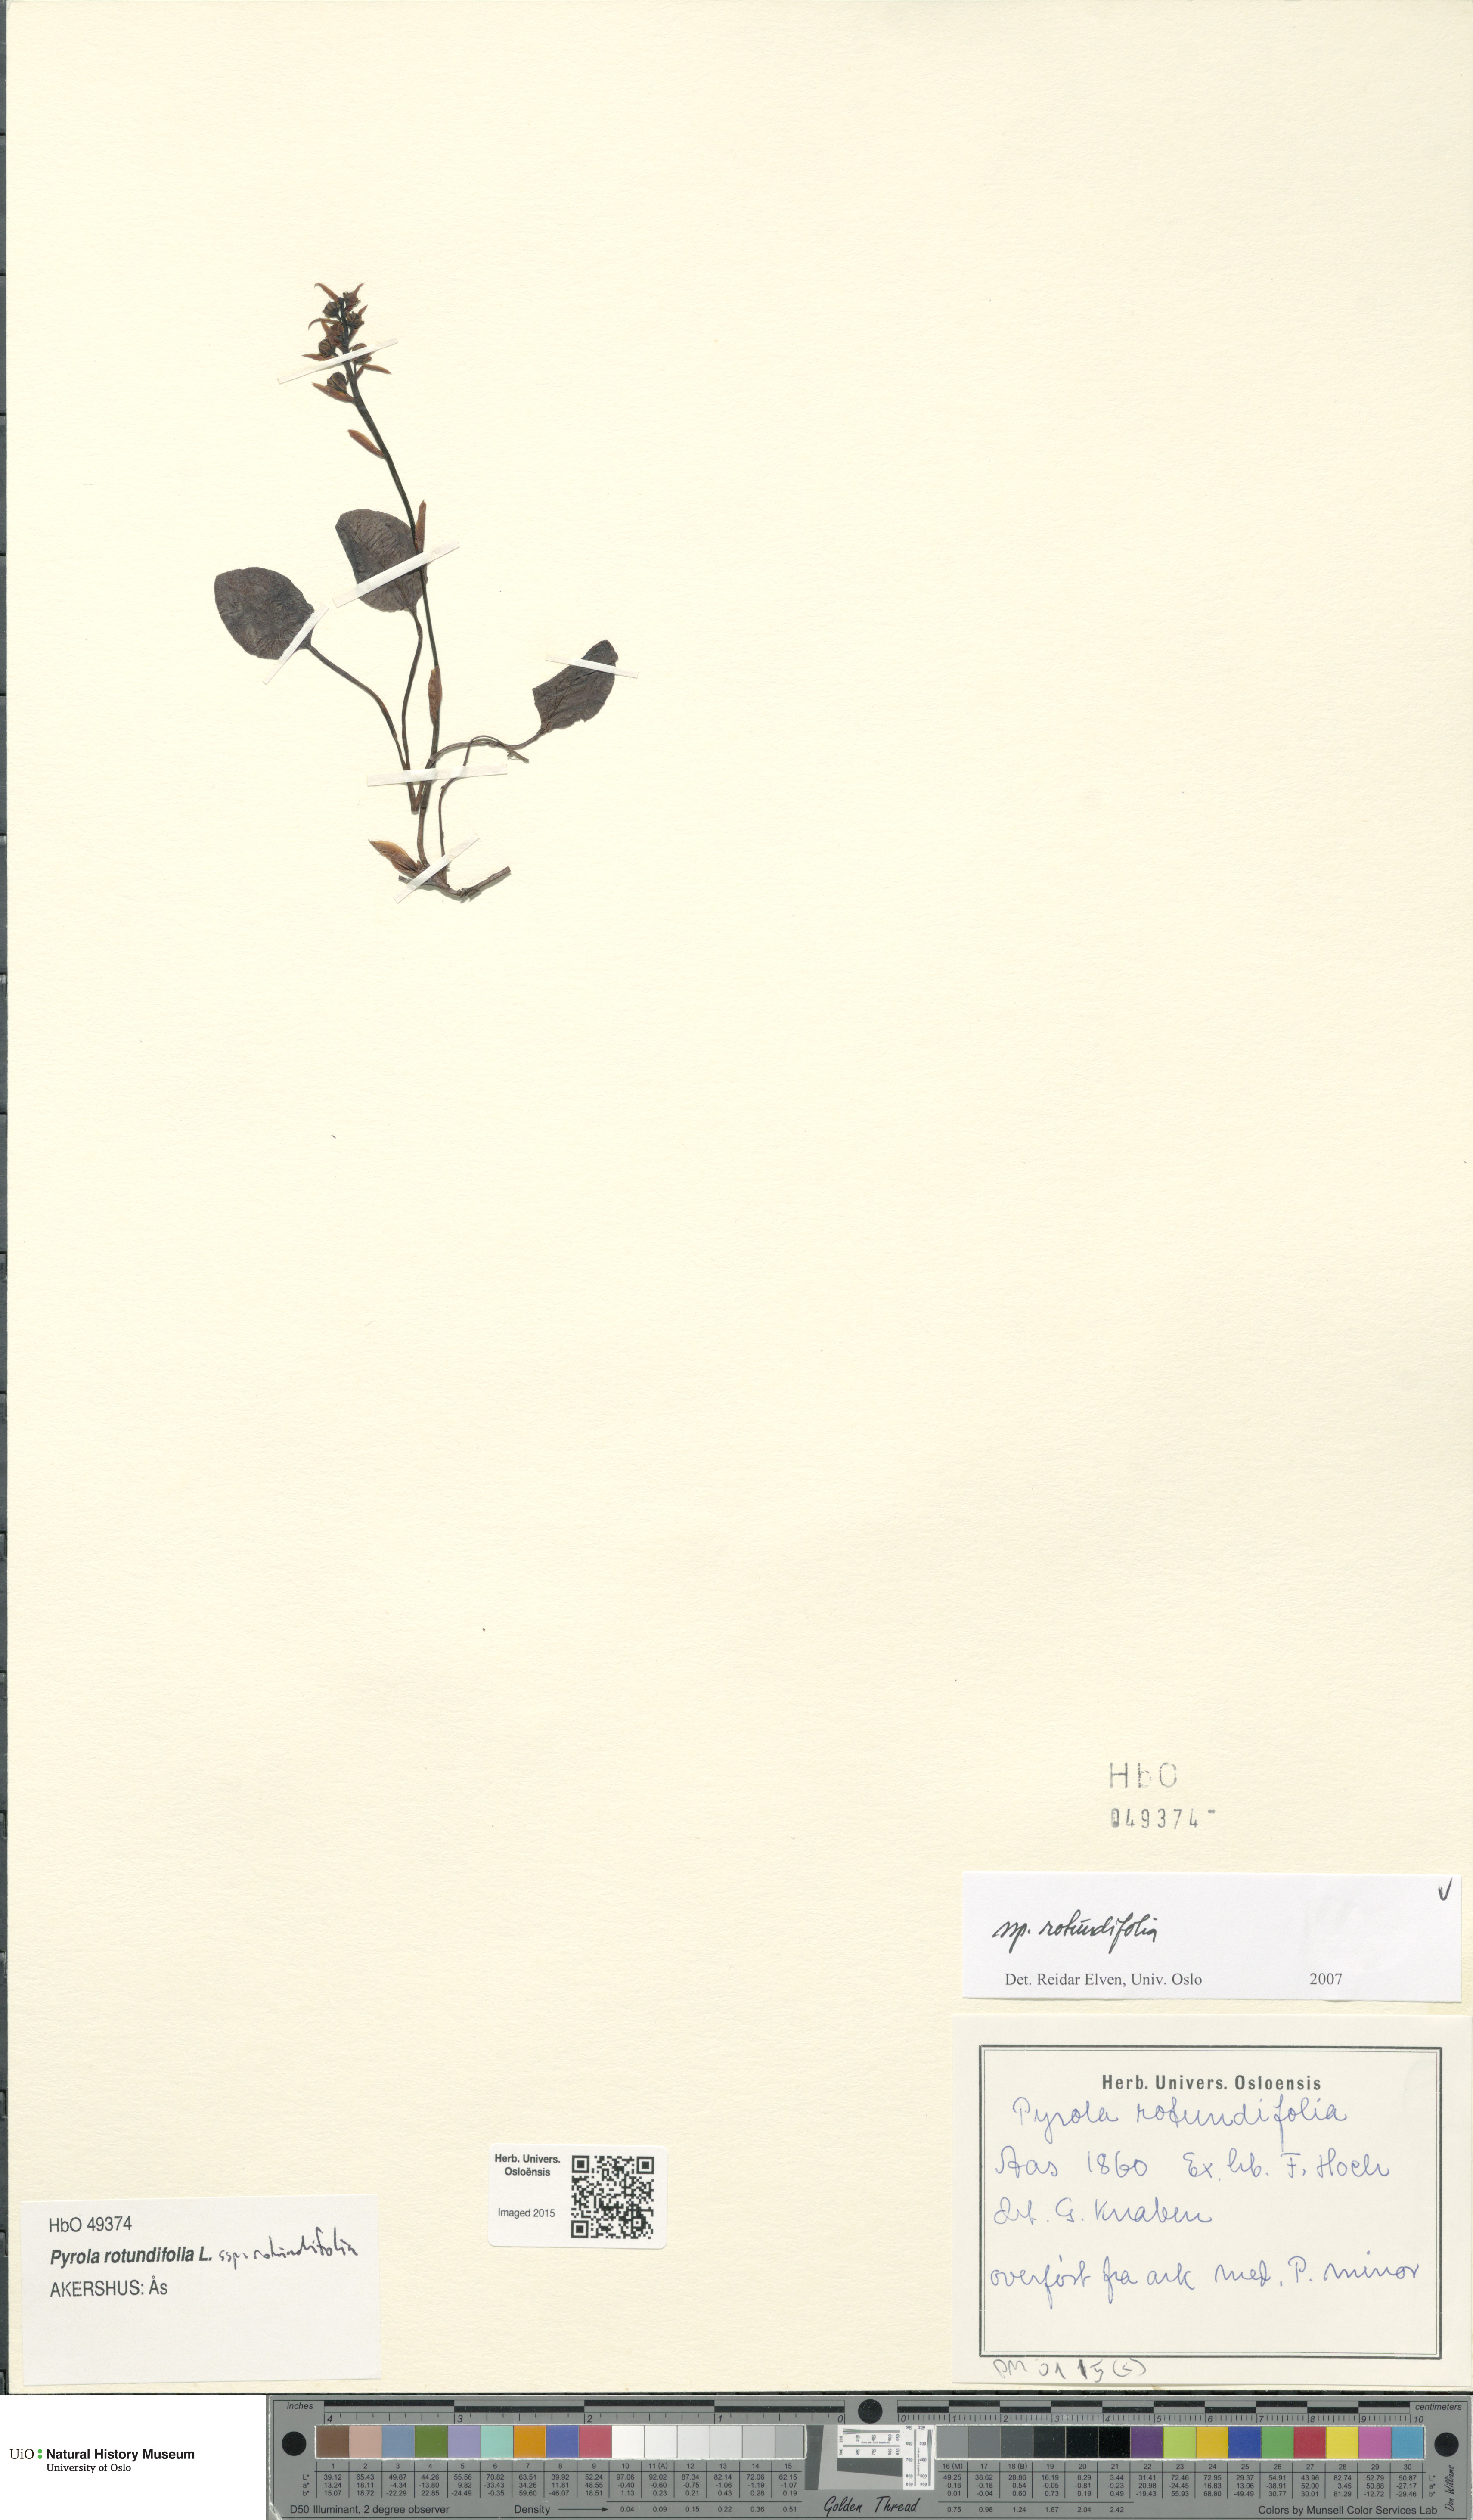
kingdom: Plantae
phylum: Tracheophyta
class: Magnoliopsida
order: Ericales
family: Ericaceae
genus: Pyrola
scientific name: Pyrola rotundifolia
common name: Round-leaved wintergreen
